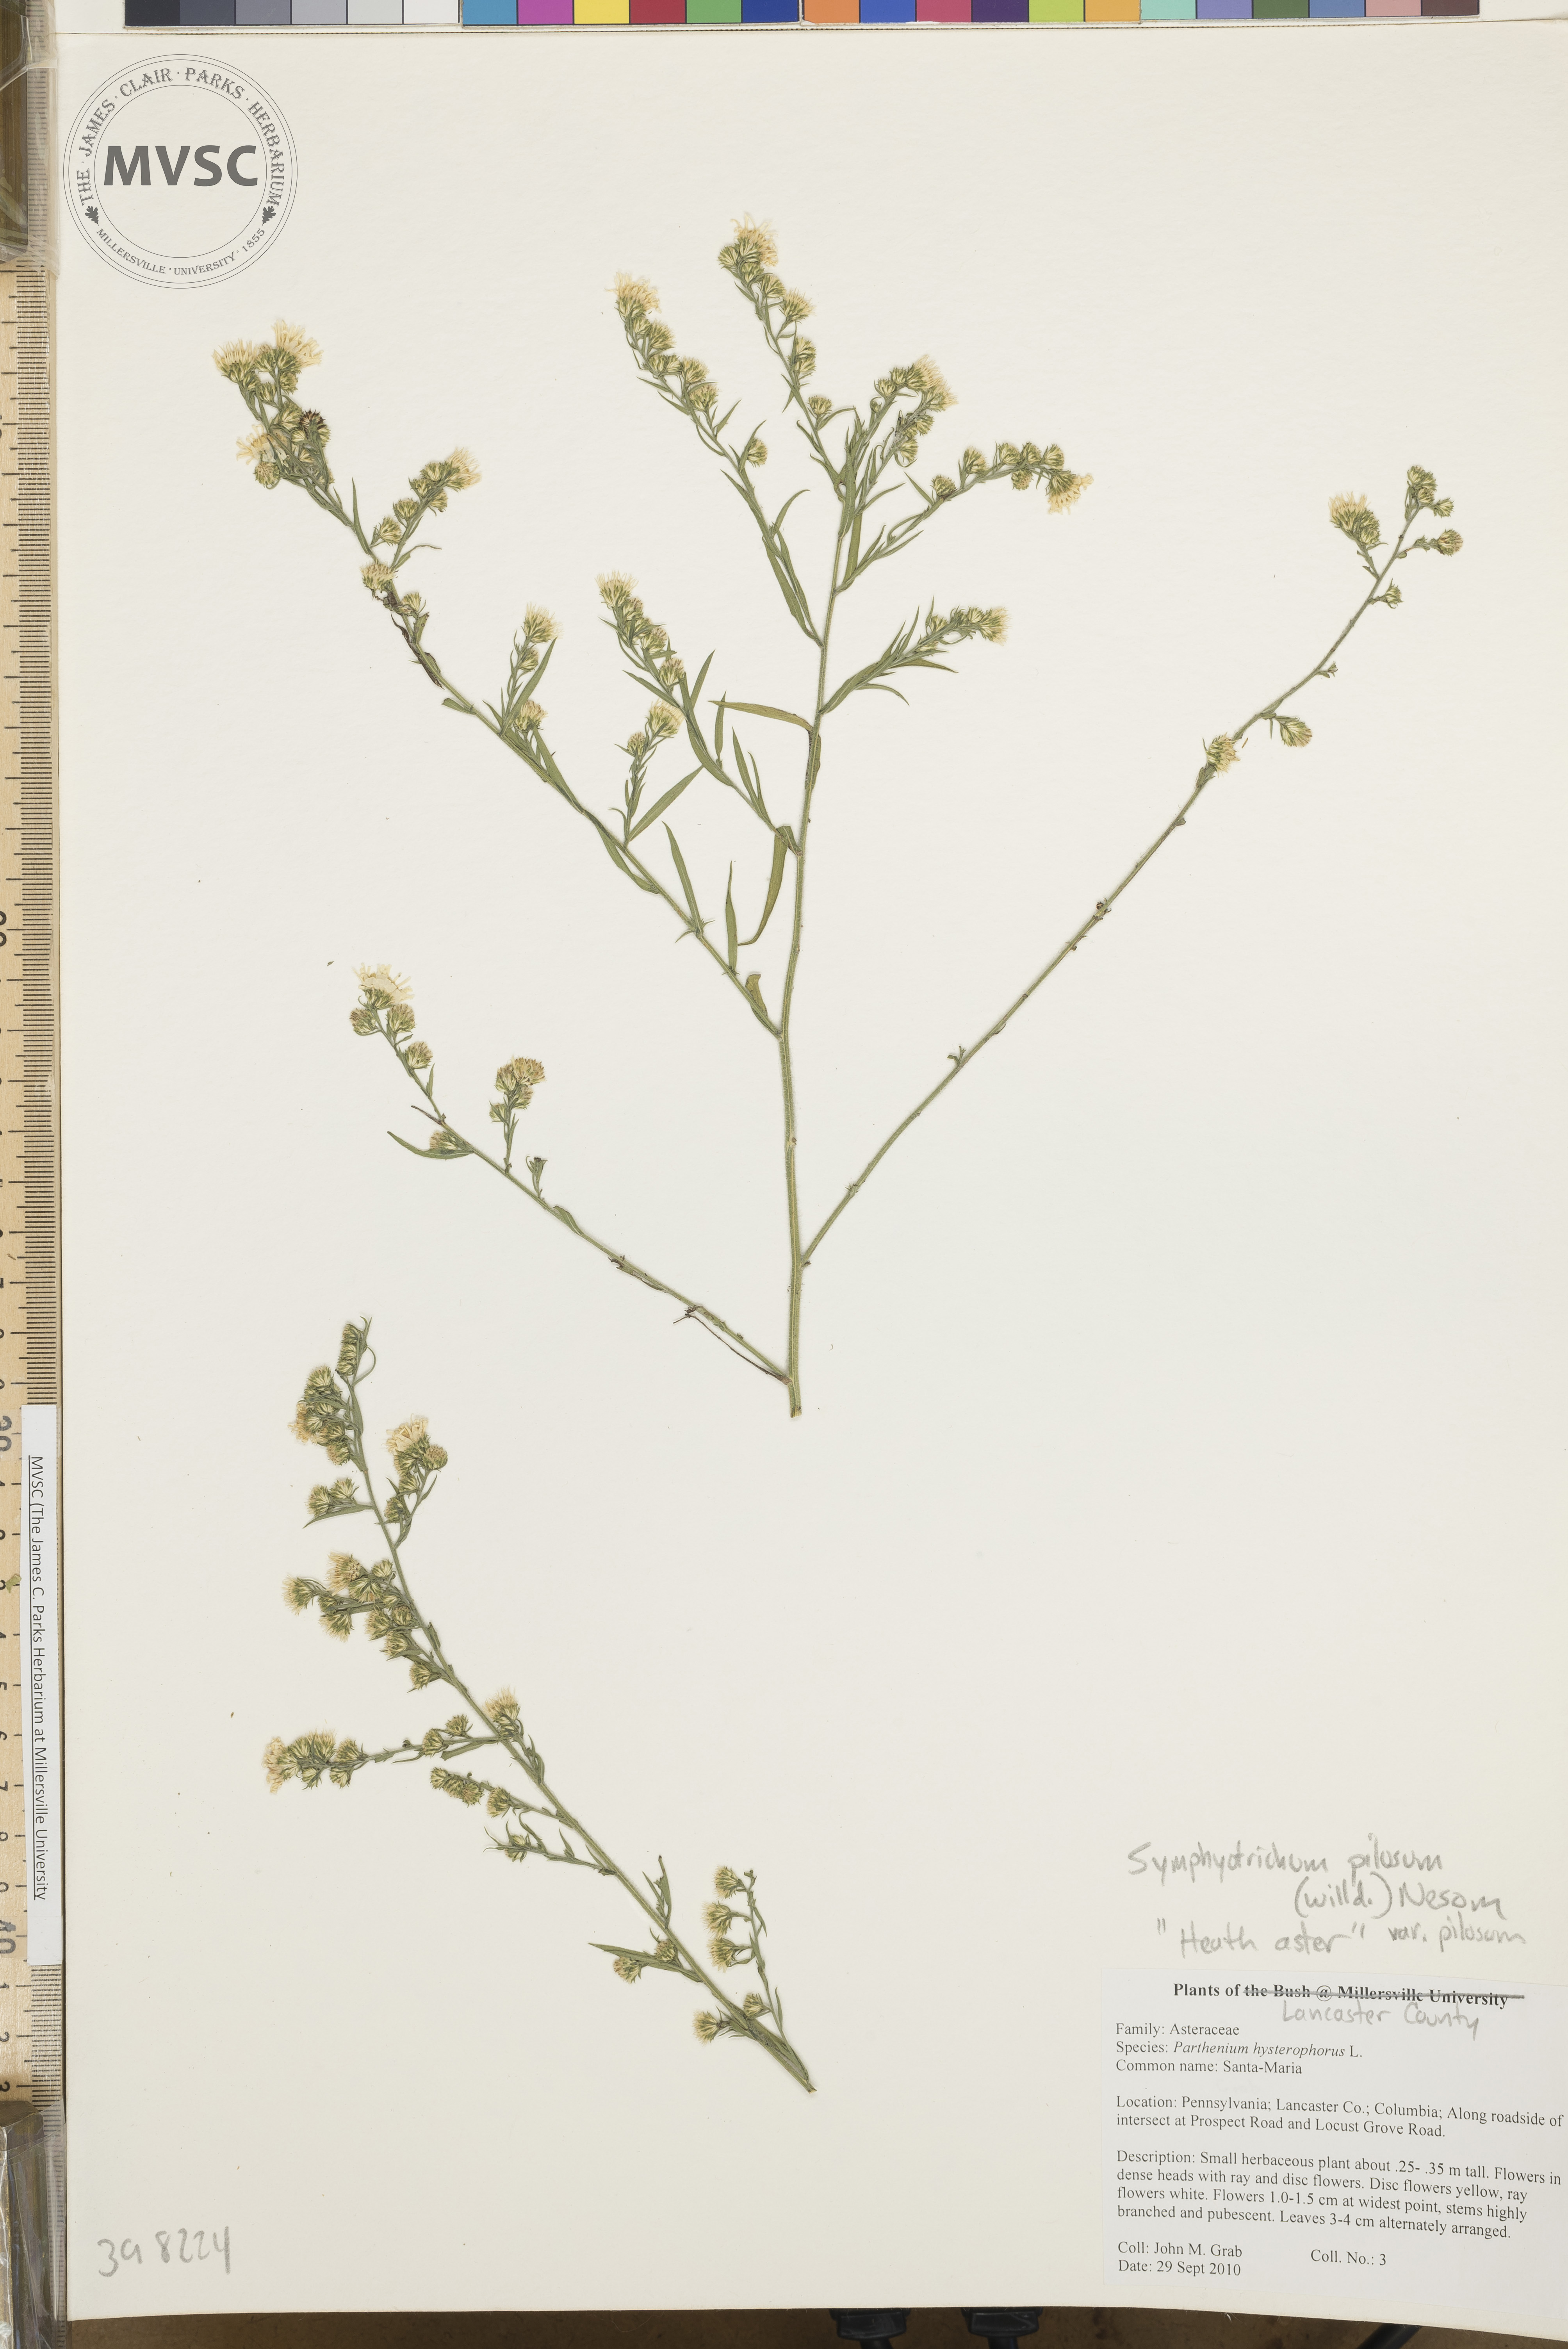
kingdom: Plantae
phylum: Tracheophyta
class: Magnoliopsida
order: Asterales
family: Asteraceae
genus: Symphyotrichum
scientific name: Symphyotrichum pilosum
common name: Late purple aster
